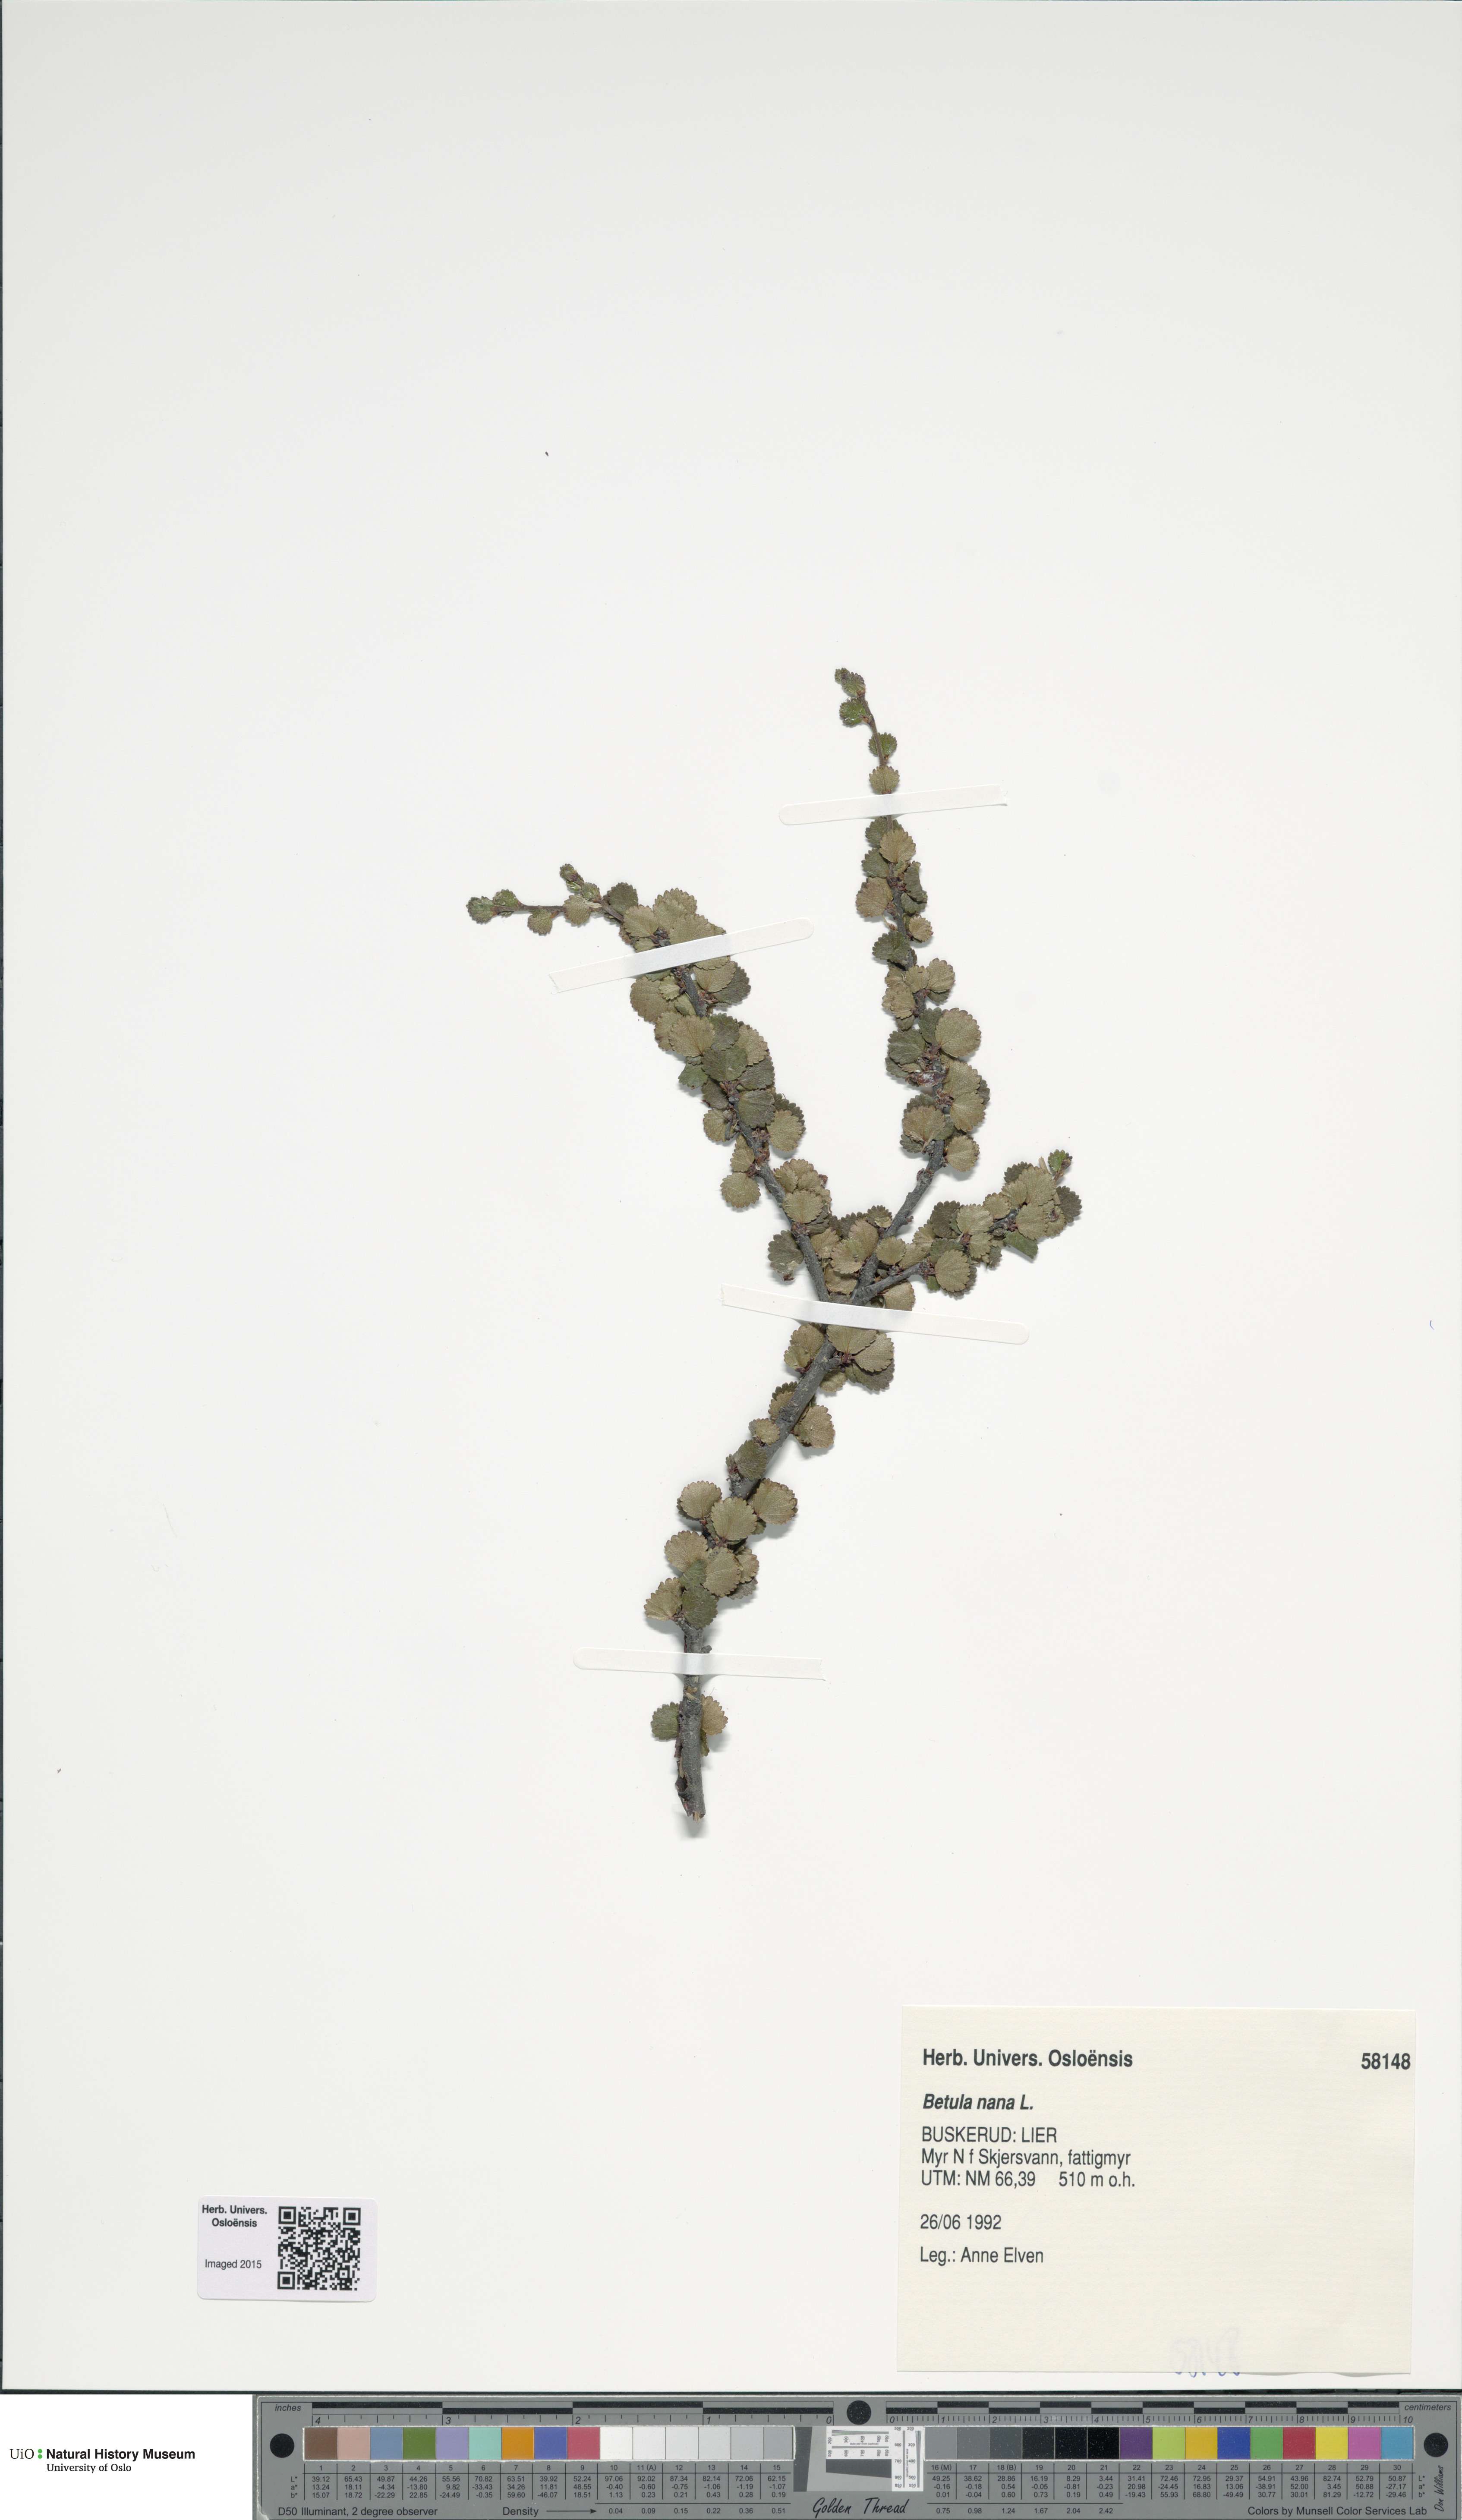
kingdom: Plantae
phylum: Tracheophyta
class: Magnoliopsida
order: Fagales
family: Betulaceae
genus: Betula
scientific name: Betula nana
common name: Arctic dwarf birch
